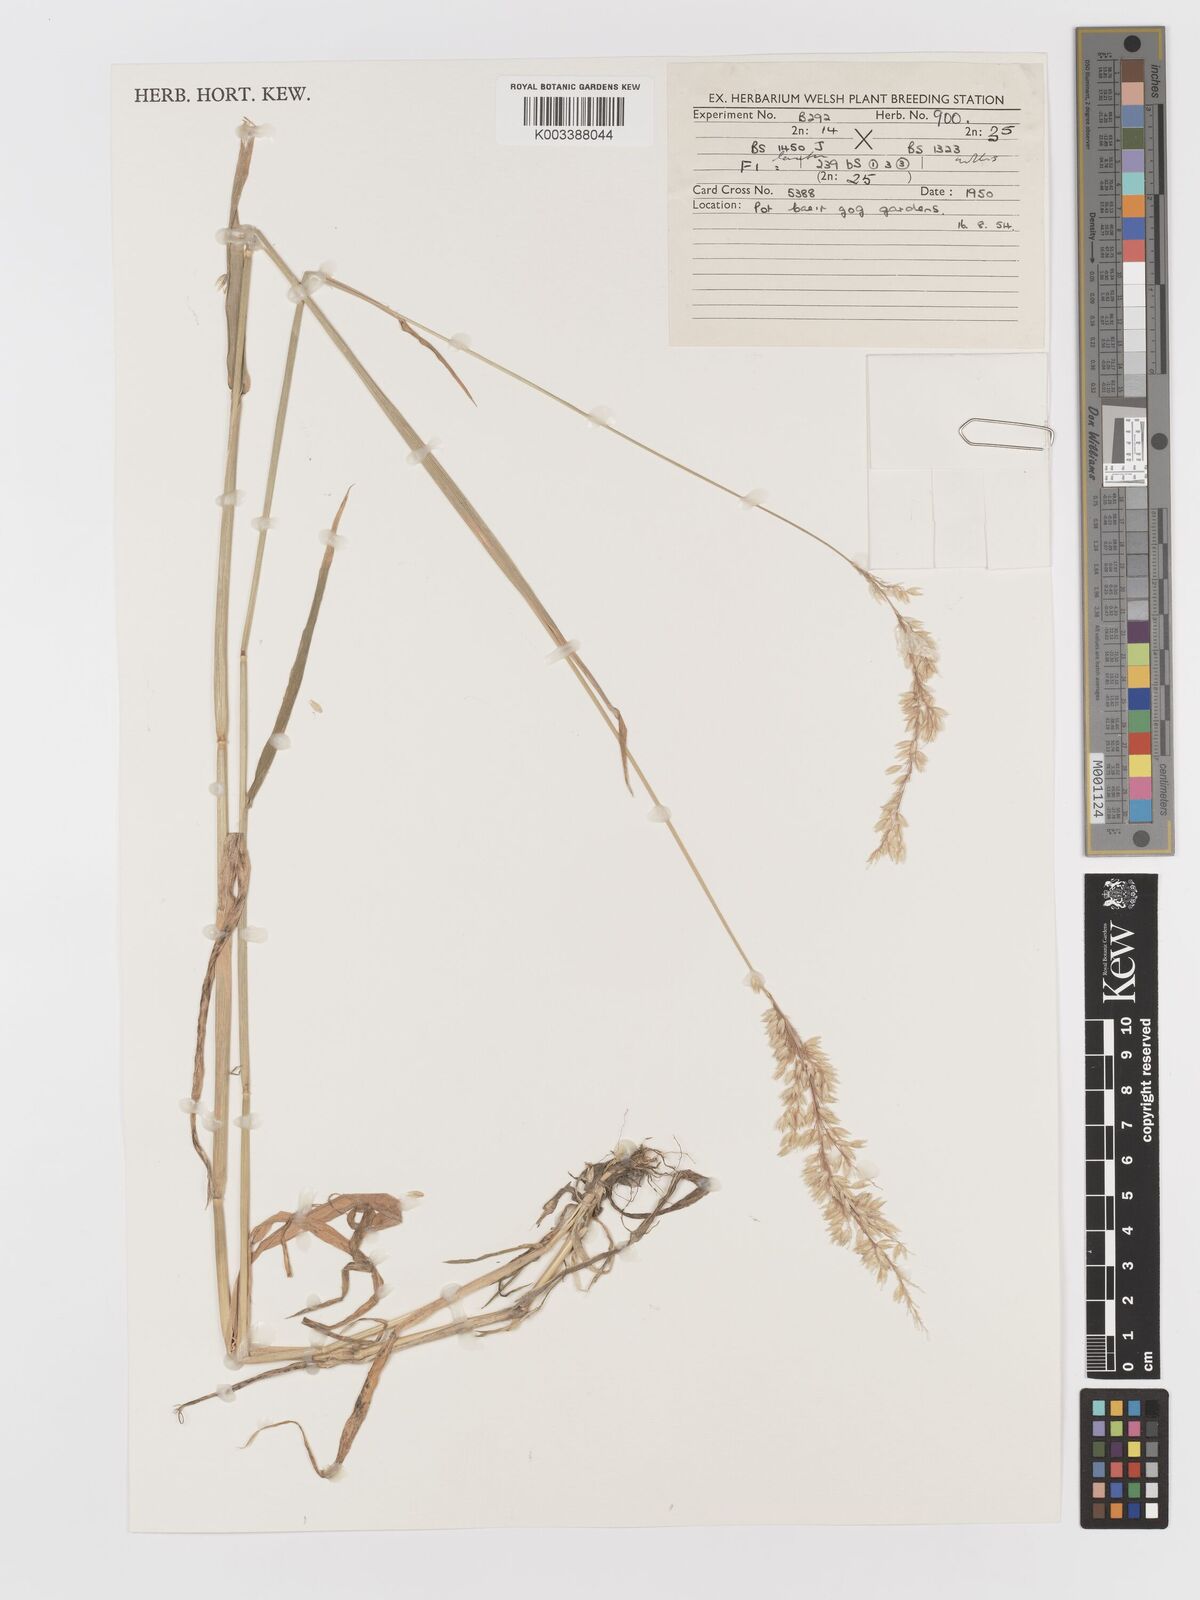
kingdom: Plantae
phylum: Tracheophyta
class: Liliopsida
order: Poales
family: Poaceae
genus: Holcus
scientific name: Holcus lanatus
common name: Yorkshire-fog
